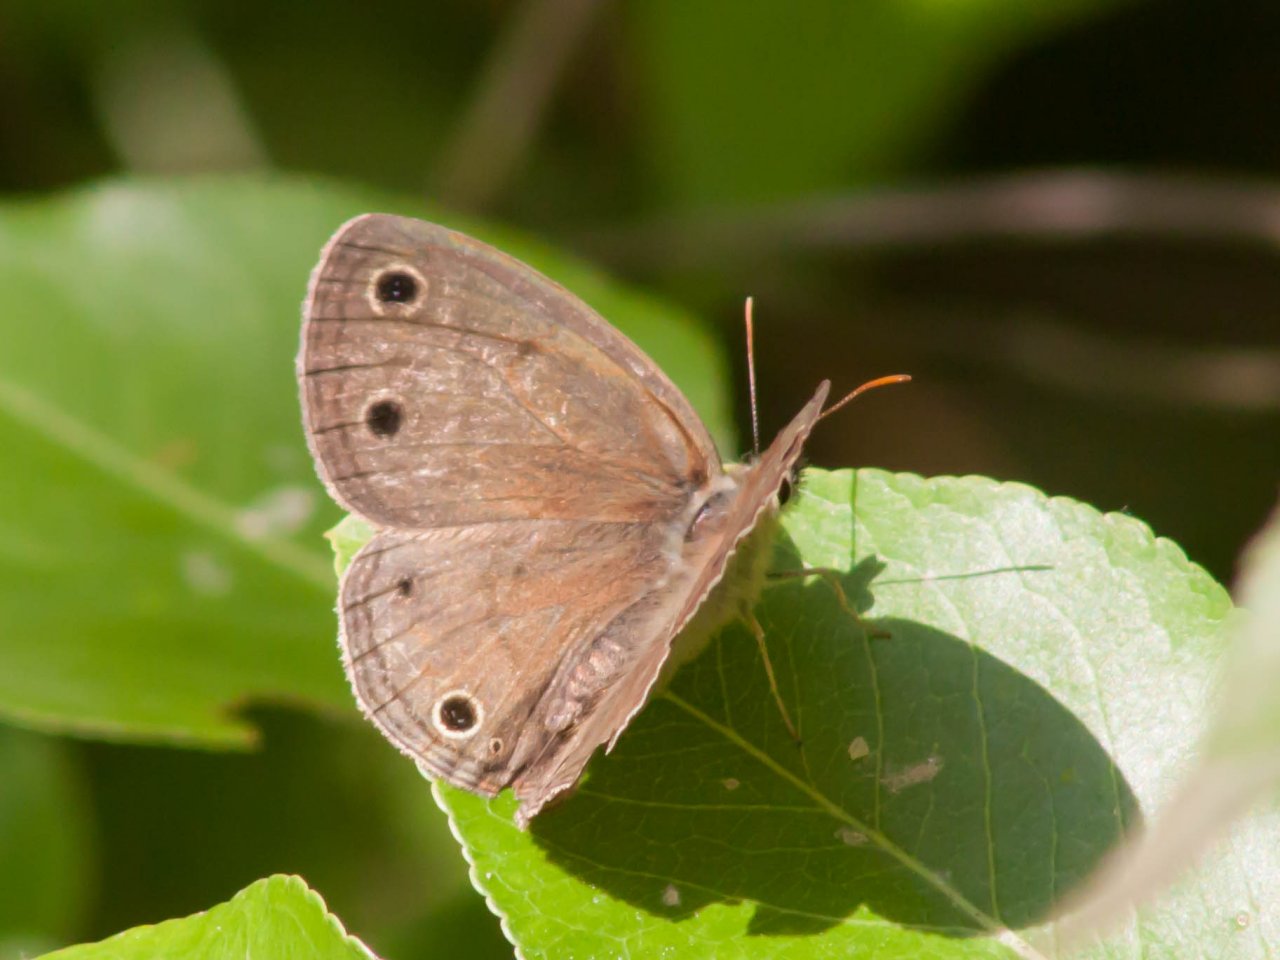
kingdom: Animalia
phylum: Arthropoda
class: Insecta
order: Lepidoptera
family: Nymphalidae
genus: Euptychia
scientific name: Euptychia cymela
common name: Little Wood Satyr
